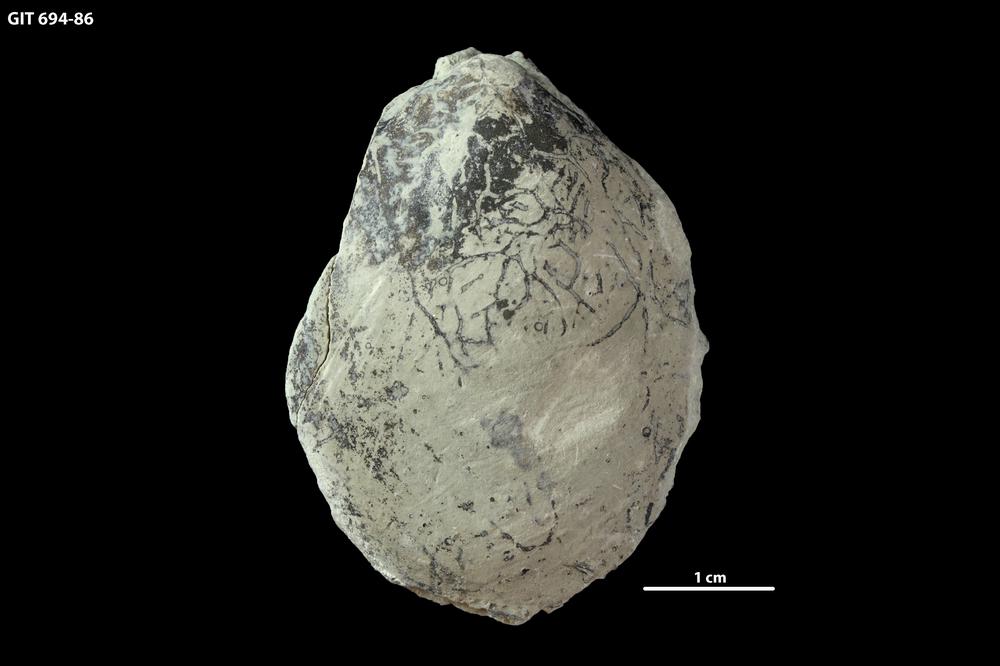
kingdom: Animalia
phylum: Mollusca
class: Bivalvia
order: Modiomorphida
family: Modiomorphidae
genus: Aristerella
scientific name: Aristerella
